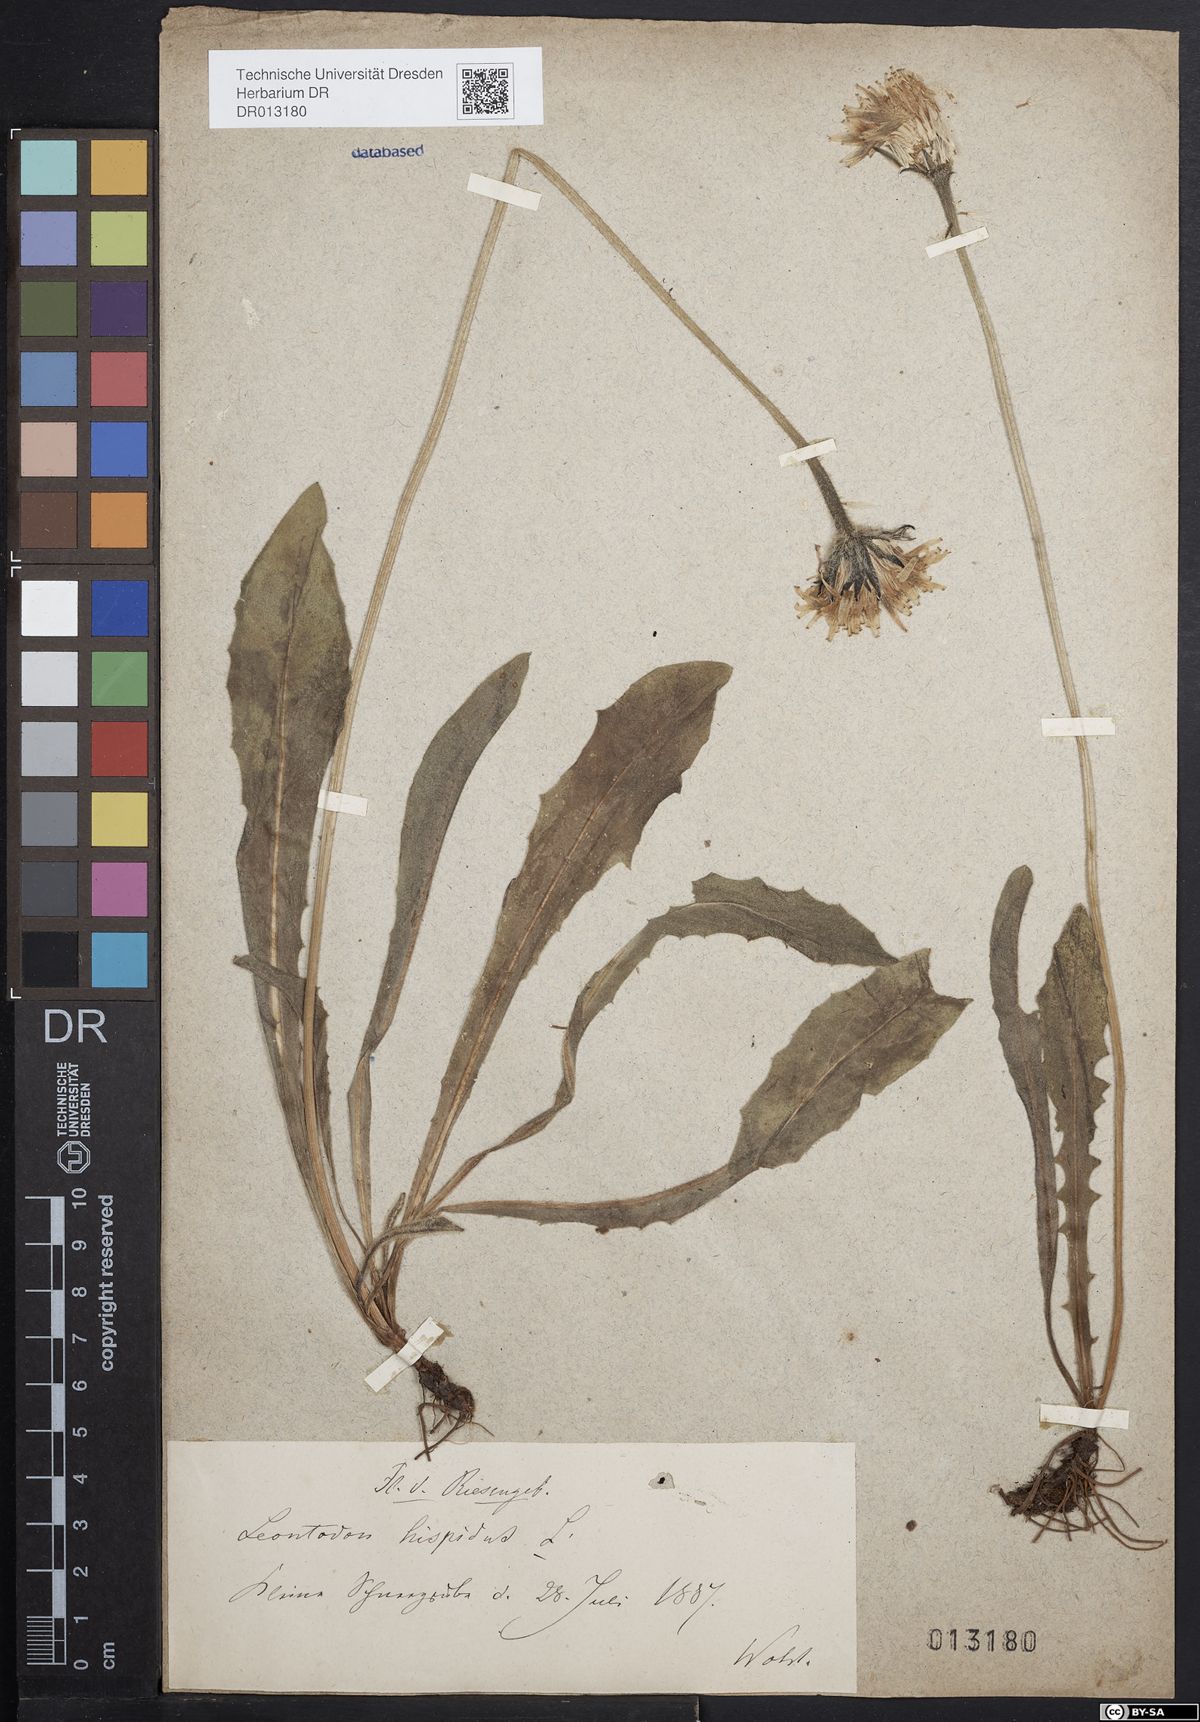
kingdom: Plantae
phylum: Tracheophyta
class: Magnoliopsida
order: Asterales
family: Asteraceae
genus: Leontodon
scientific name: Leontodon hispidus
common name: Rough hawkbit
